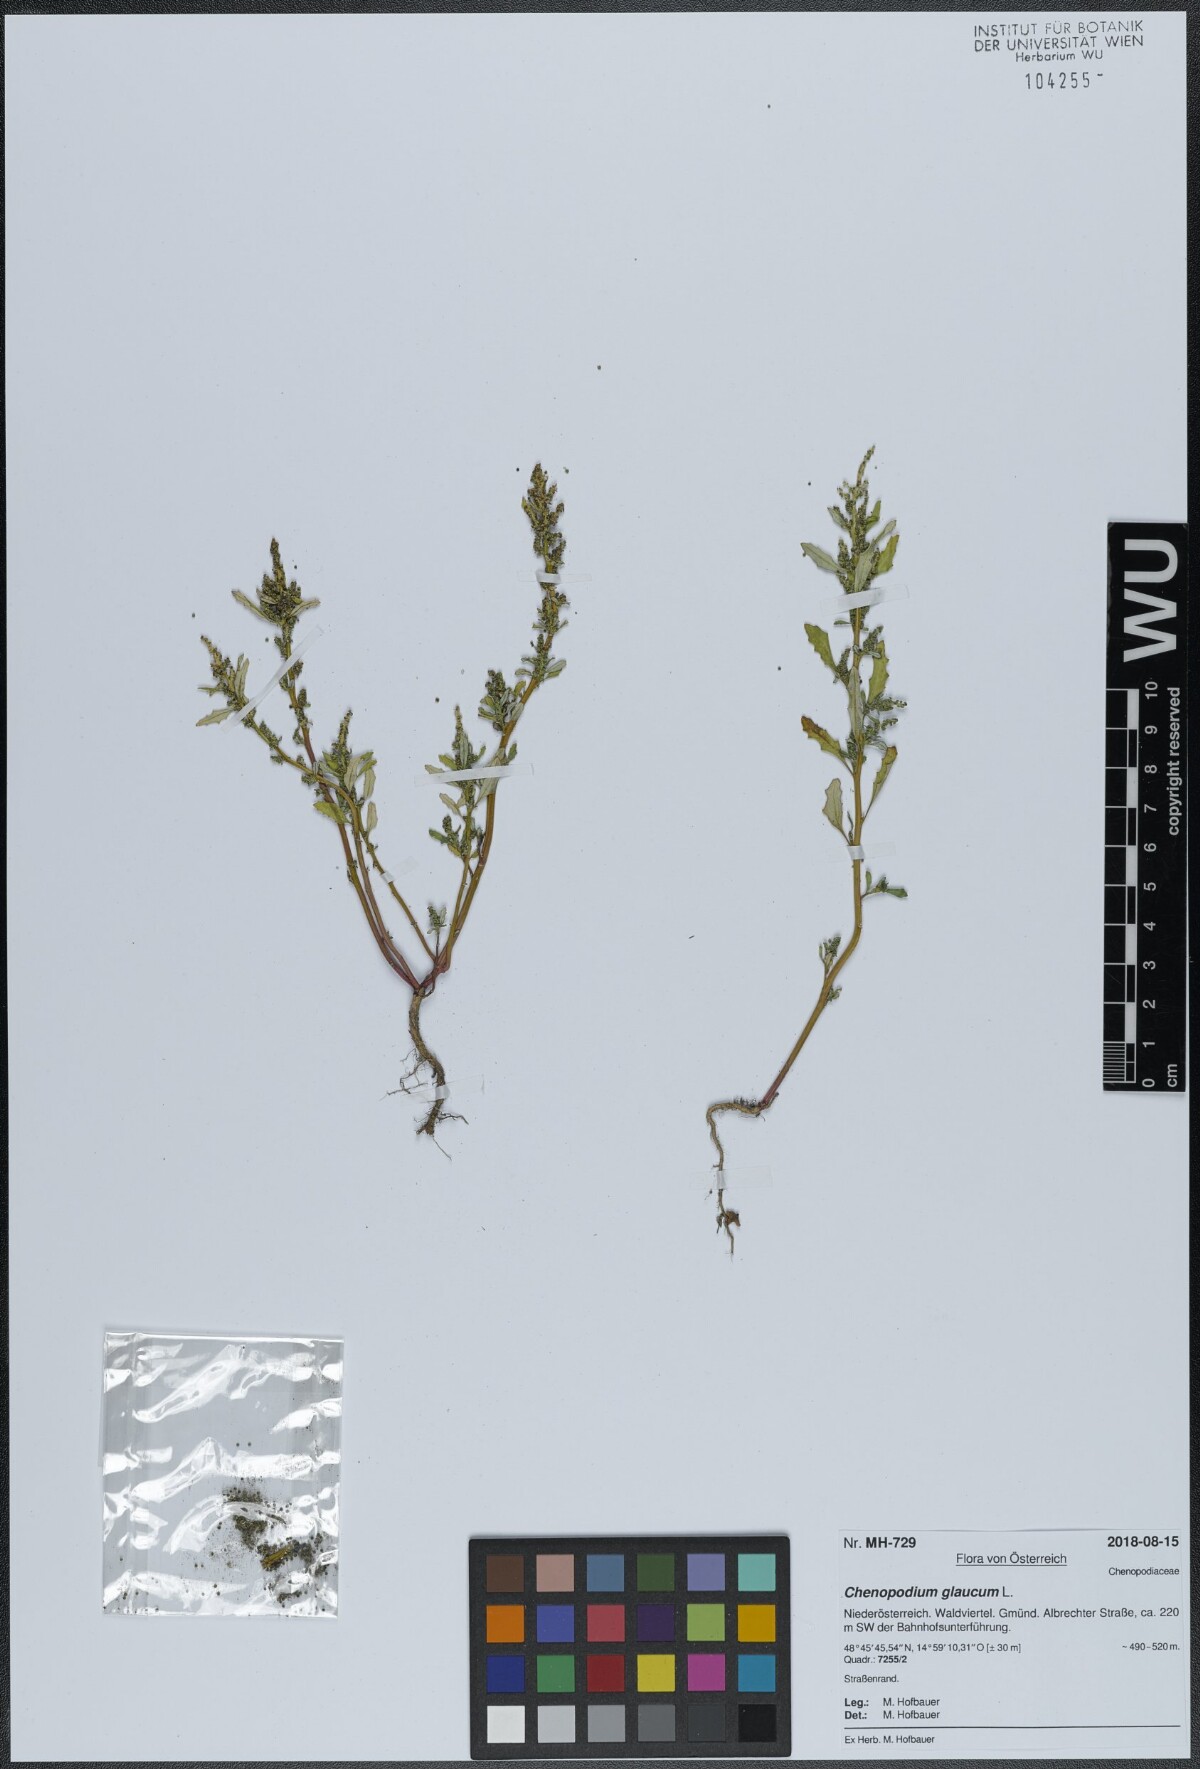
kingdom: Plantae
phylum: Tracheophyta
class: Magnoliopsida
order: Caryophyllales
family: Amaranthaceae
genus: Oxybasis
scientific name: Oxybasis glauca
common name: Glaucous goosefoot
